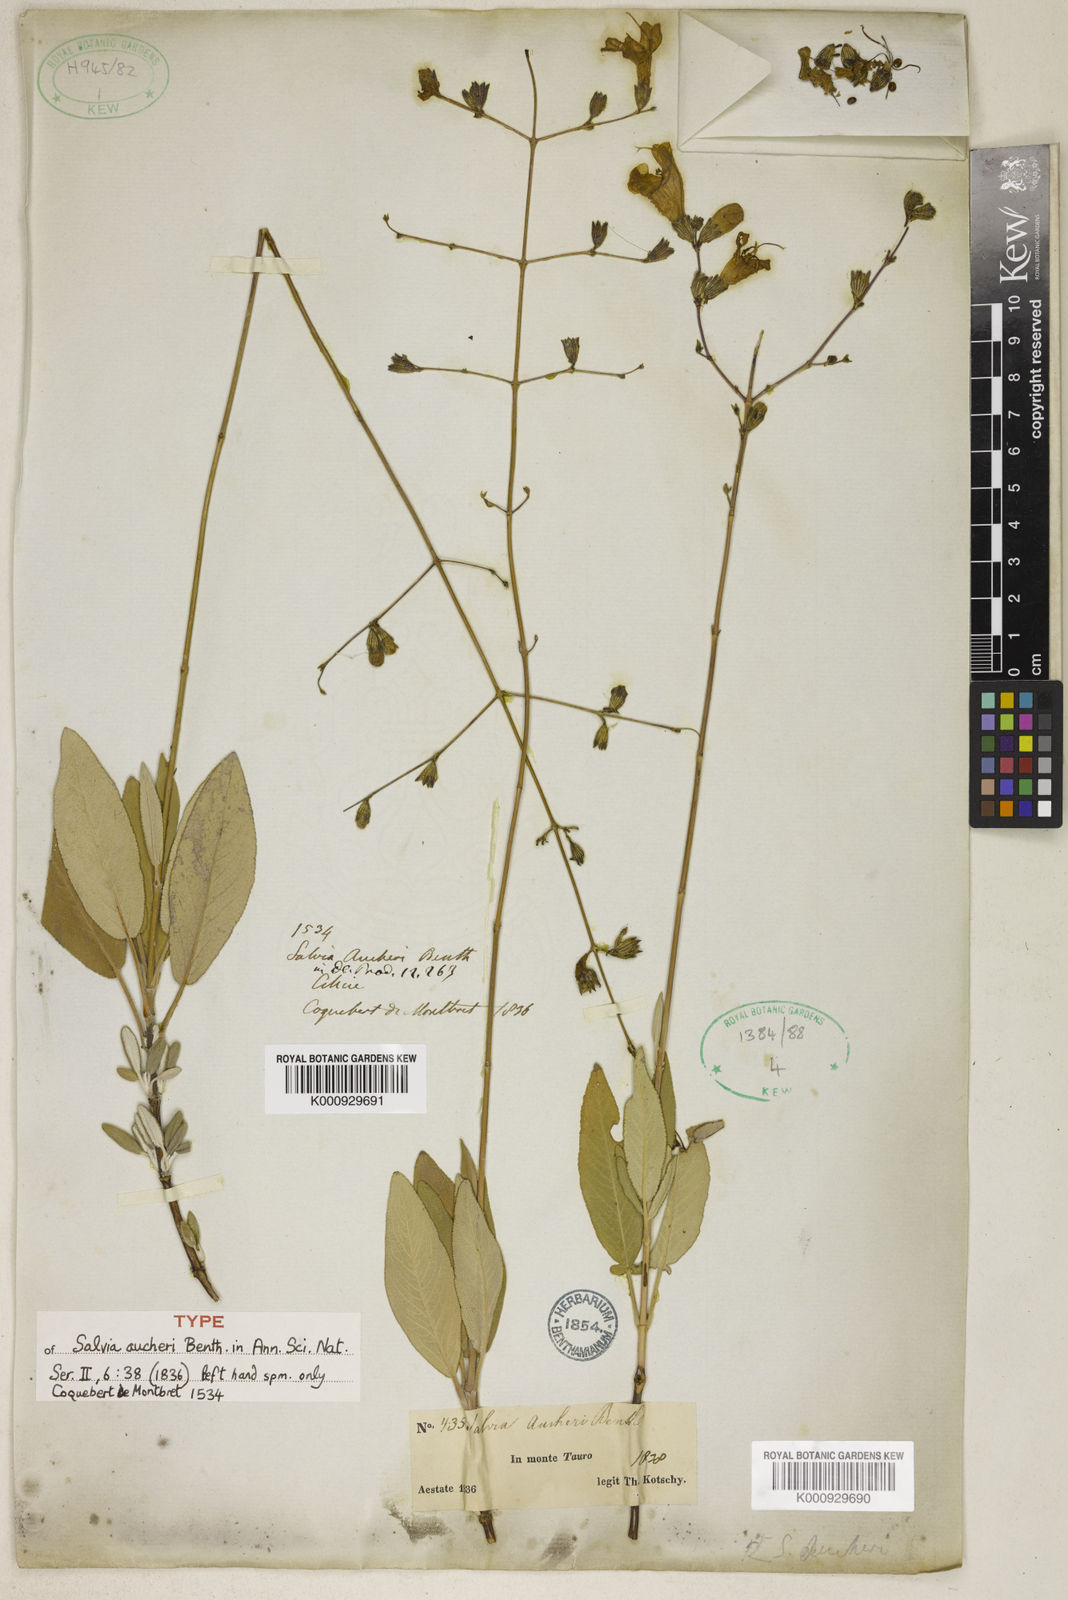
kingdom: Plantae
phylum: Tracheophyta
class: Magnoliopsida
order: Lamiales
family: Lamiaceae
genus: Salvia
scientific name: Salvia aucheri
